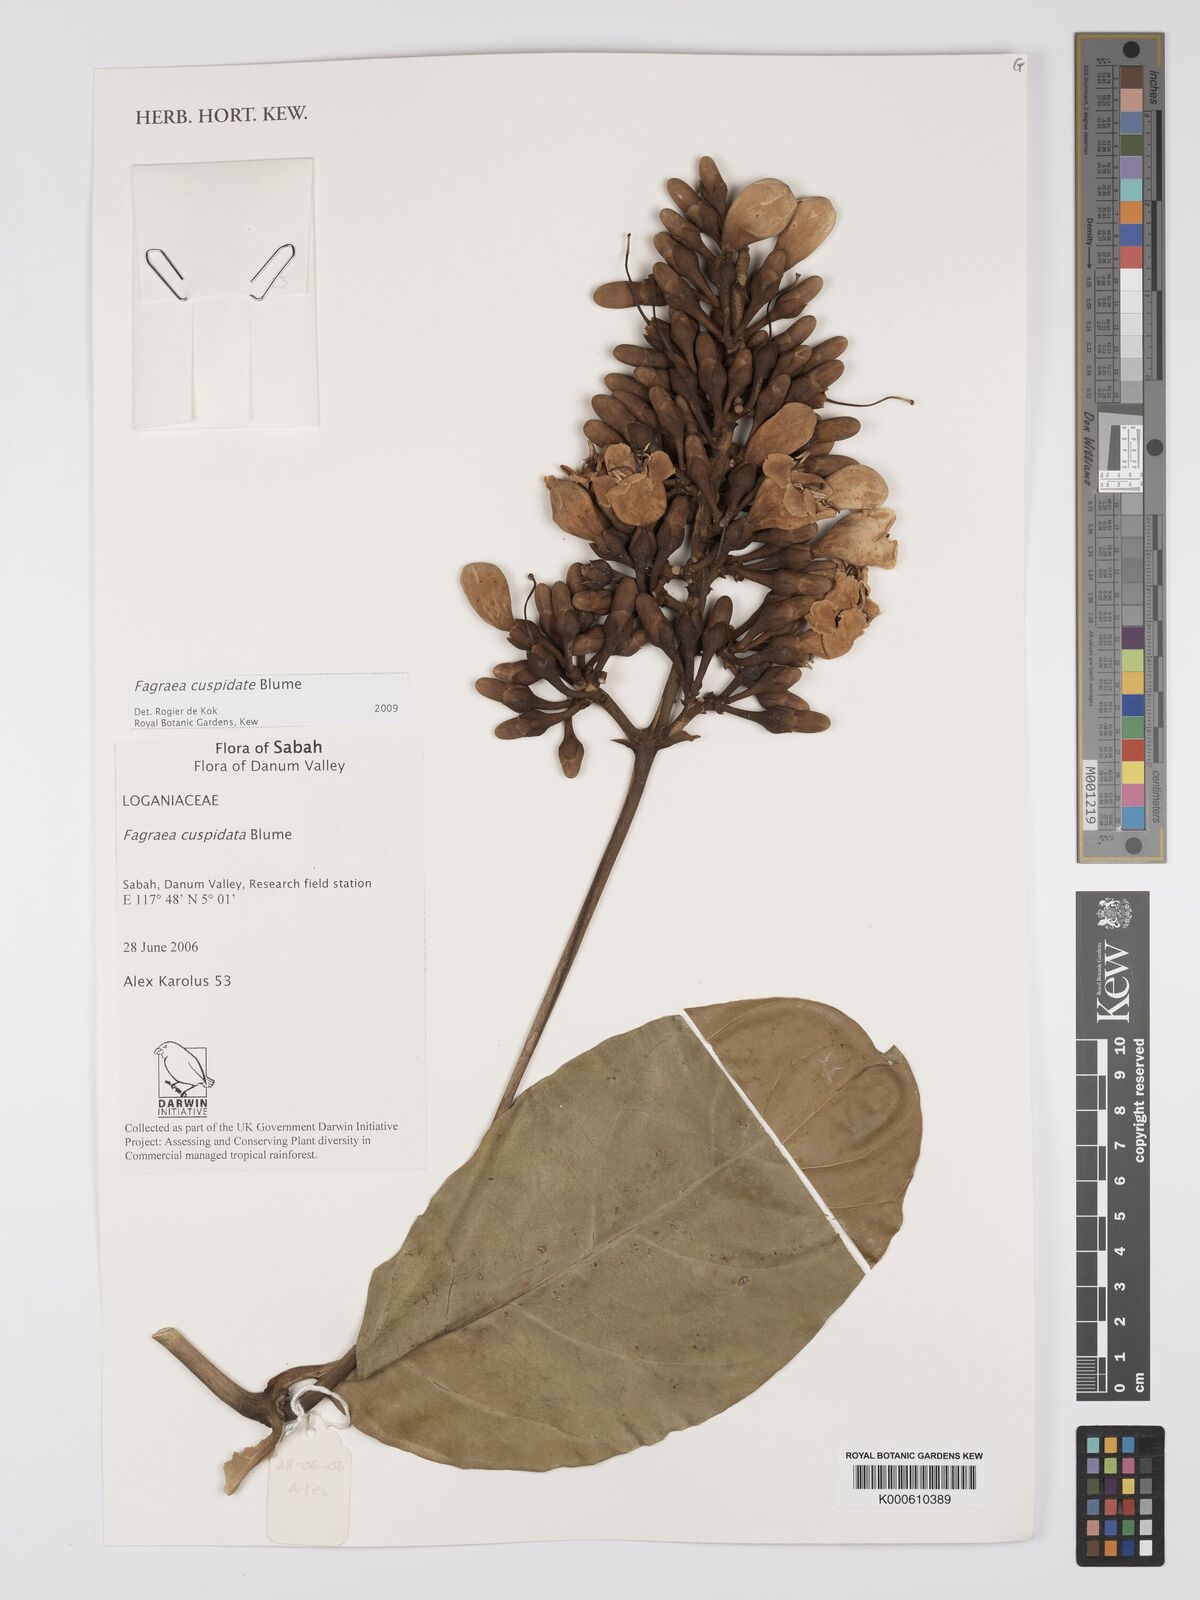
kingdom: Plantae
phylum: Tracheophyta
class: Magnoliopsida
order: Gentianales
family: Gentianaceae
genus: Utania
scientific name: Utania cuspidata
